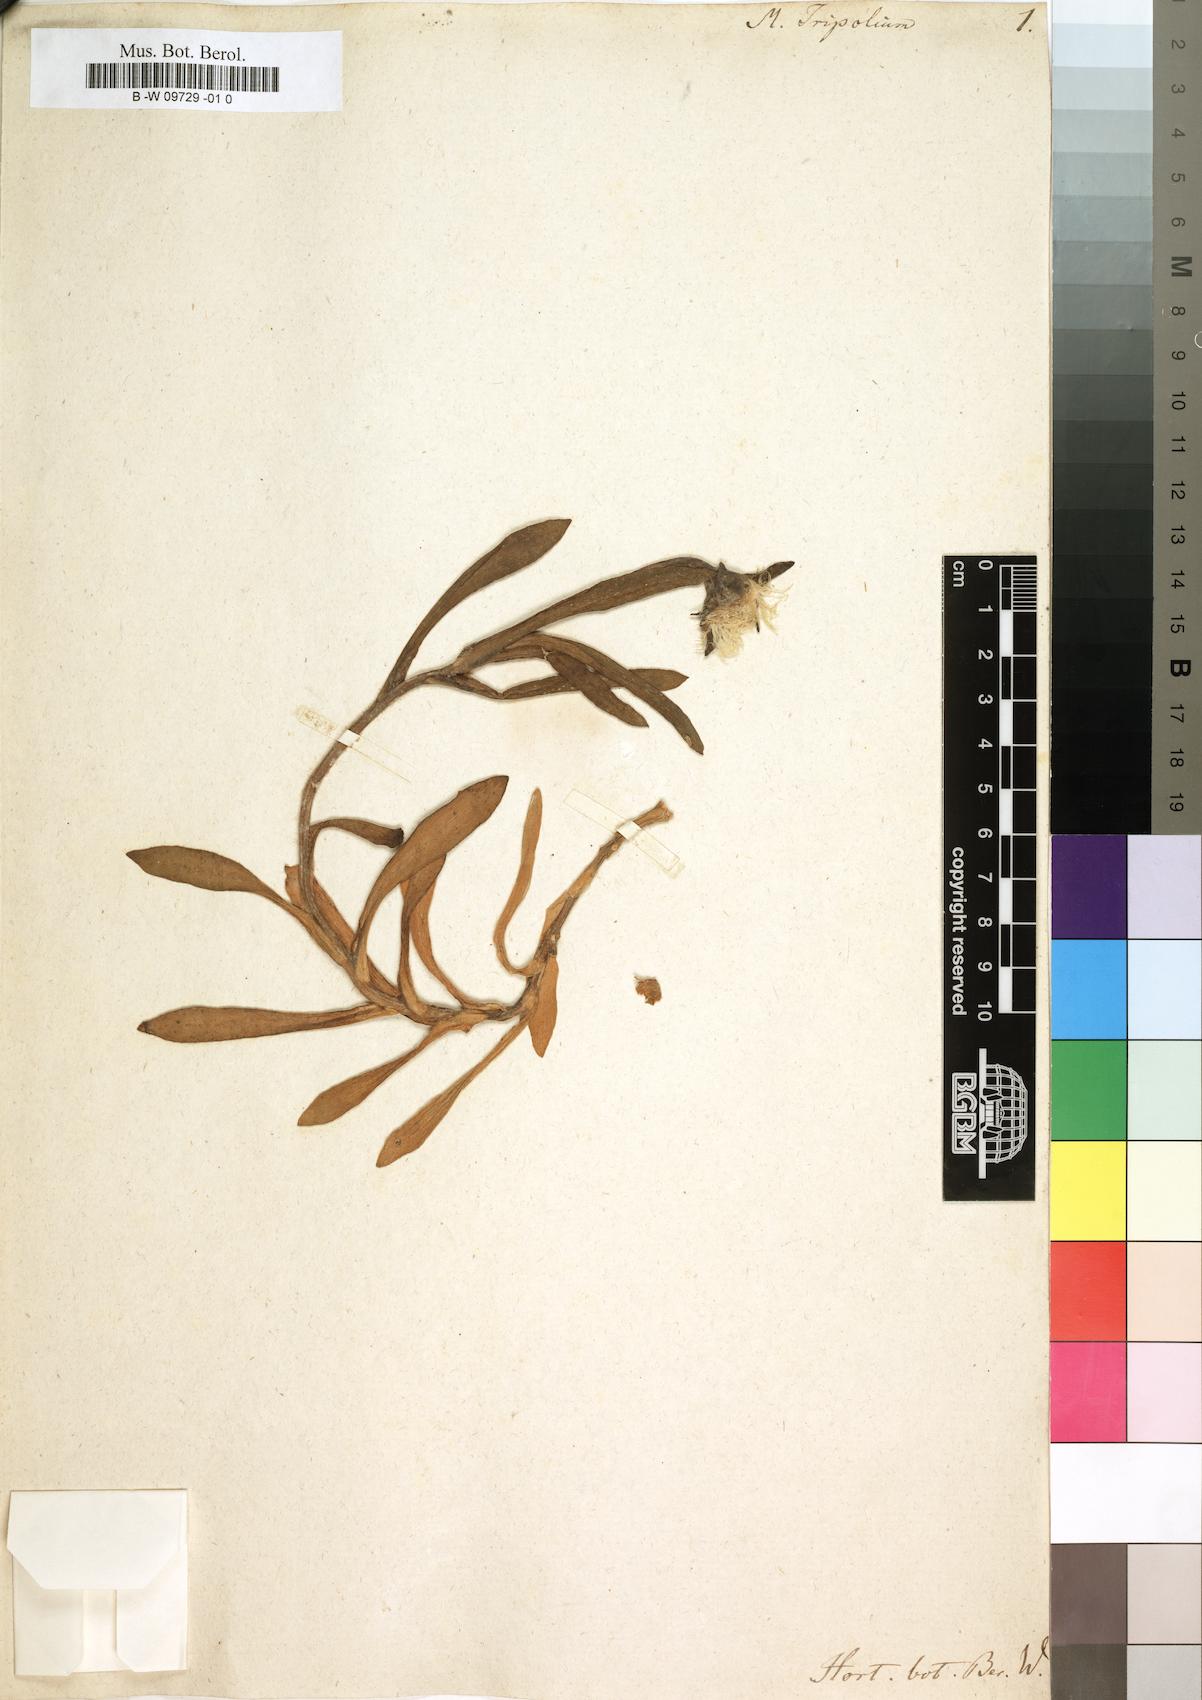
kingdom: Plantae
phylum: Tracheophyta
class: Magnoliopsida
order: Caryophyllales
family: Aizoaceae
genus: Skiatophytum
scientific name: Skiatophytum tripolium
